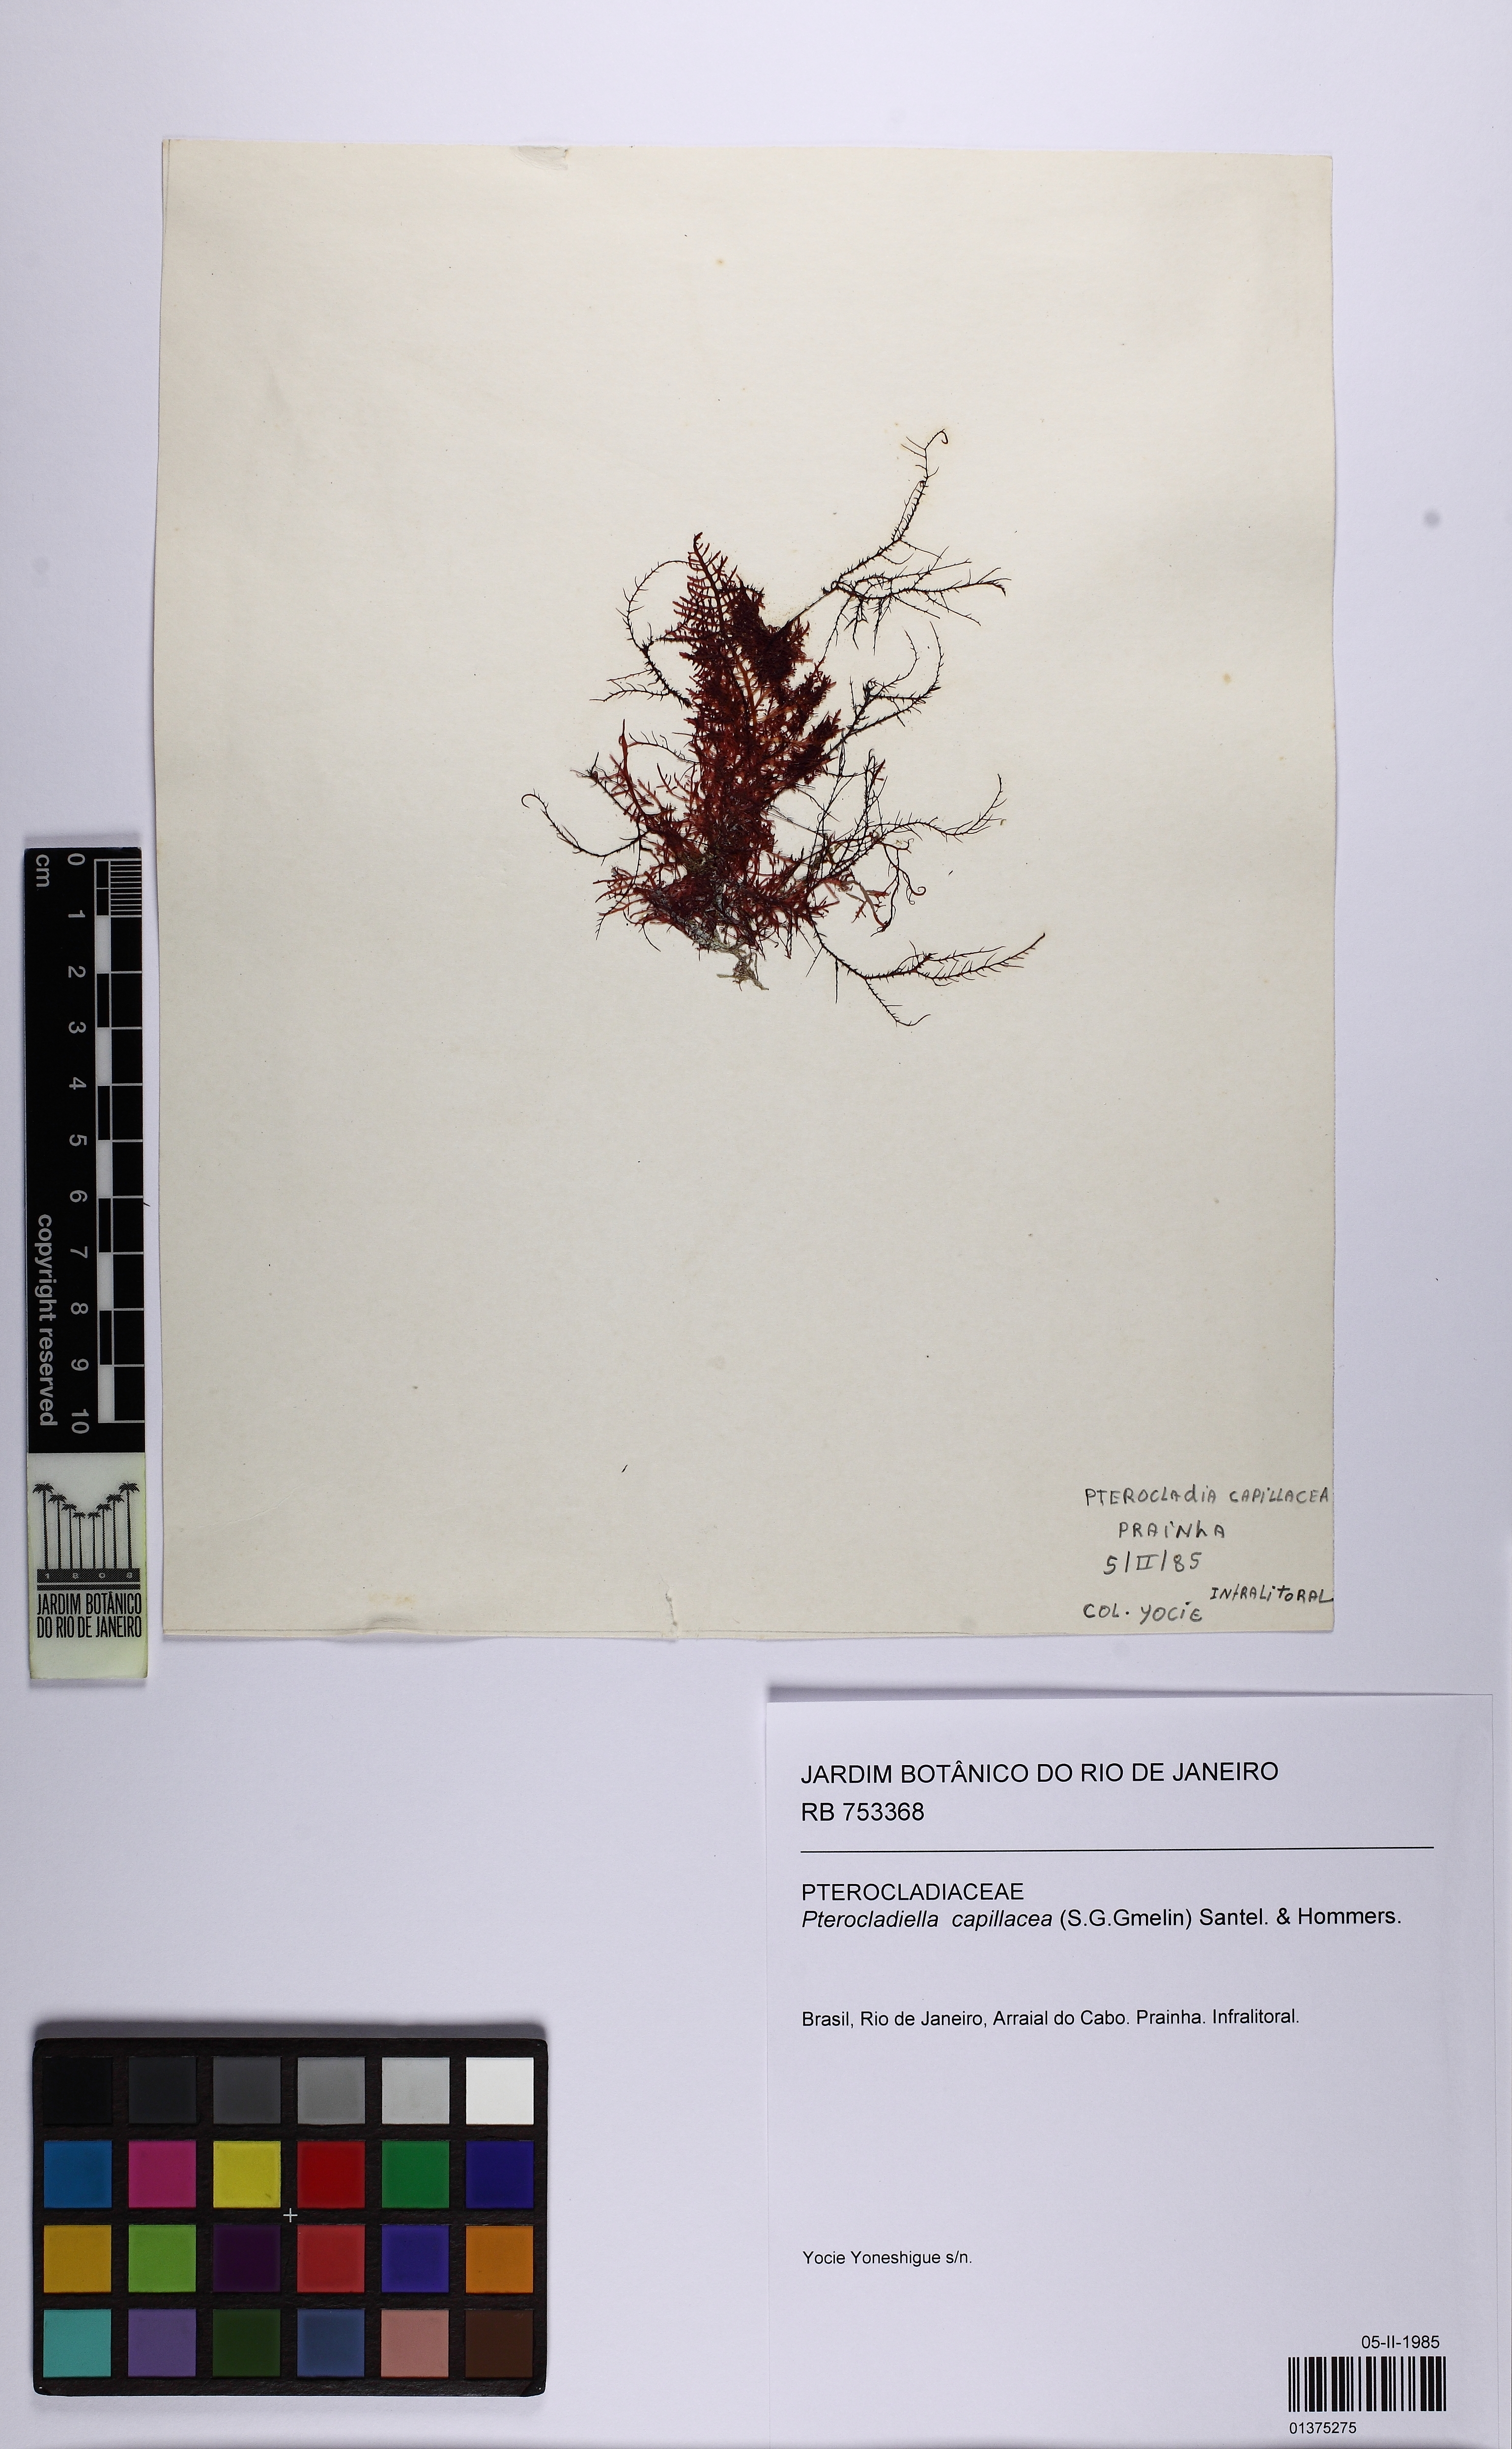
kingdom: Plantae
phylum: Rhodophyta
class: Florideophyceae
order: Gelidiales
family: Pterocladiaceae
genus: Pterocladiella
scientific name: Pterocladiella capillacea
